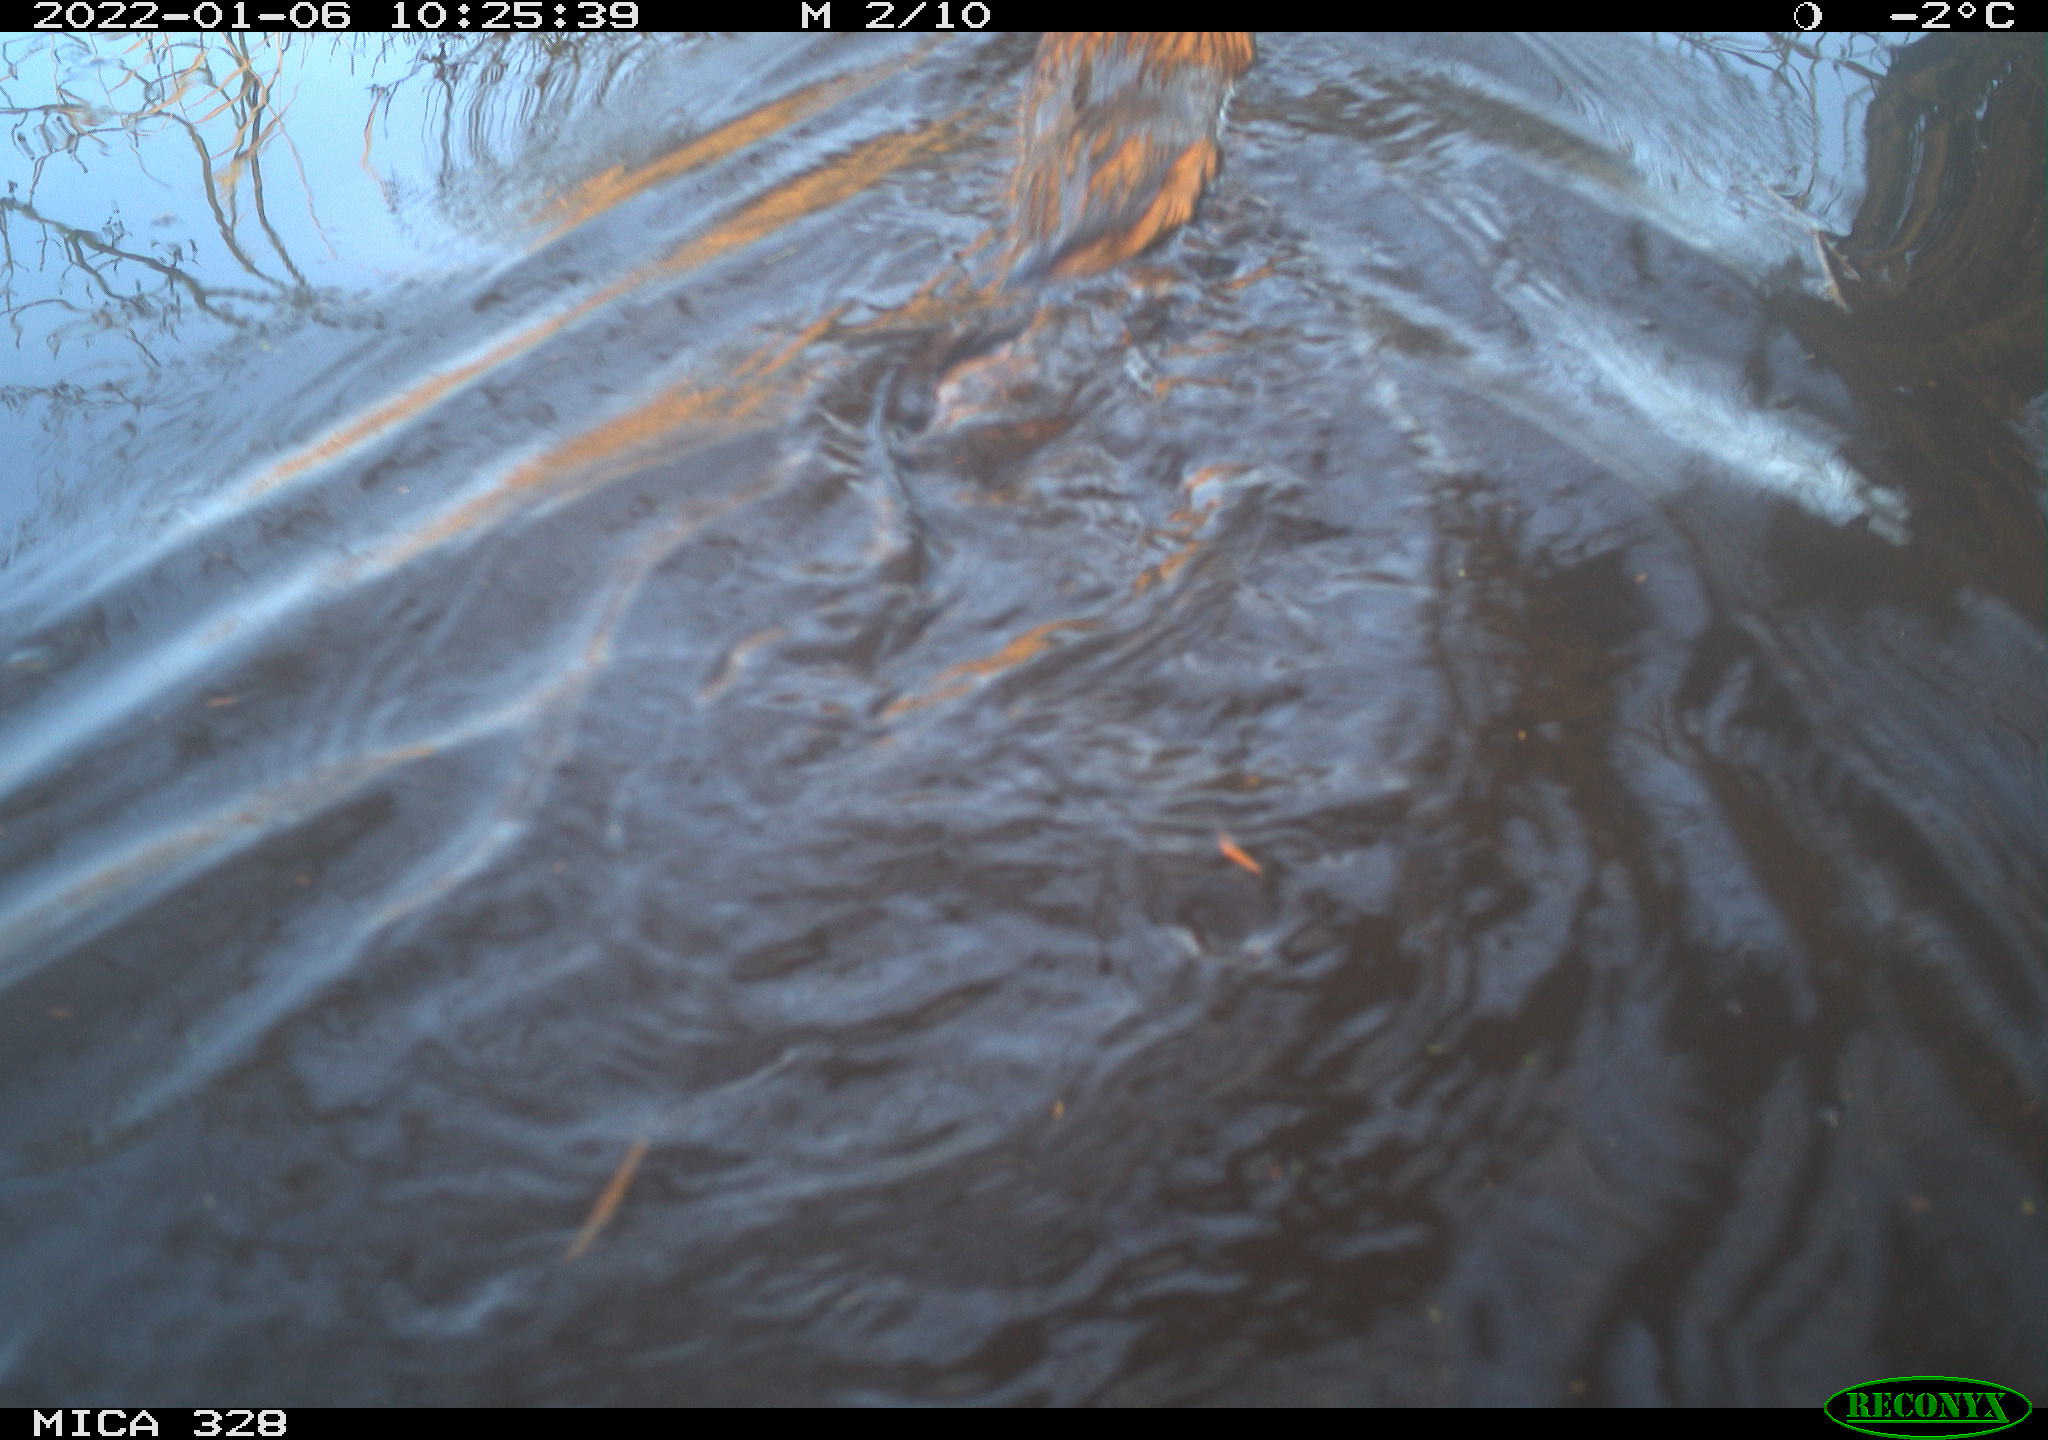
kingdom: Animalia
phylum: Chordata
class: Mammalia
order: Rodentia
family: Cricetidae
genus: Ondatra
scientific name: Ondatra zibethicus
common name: Muskrat
